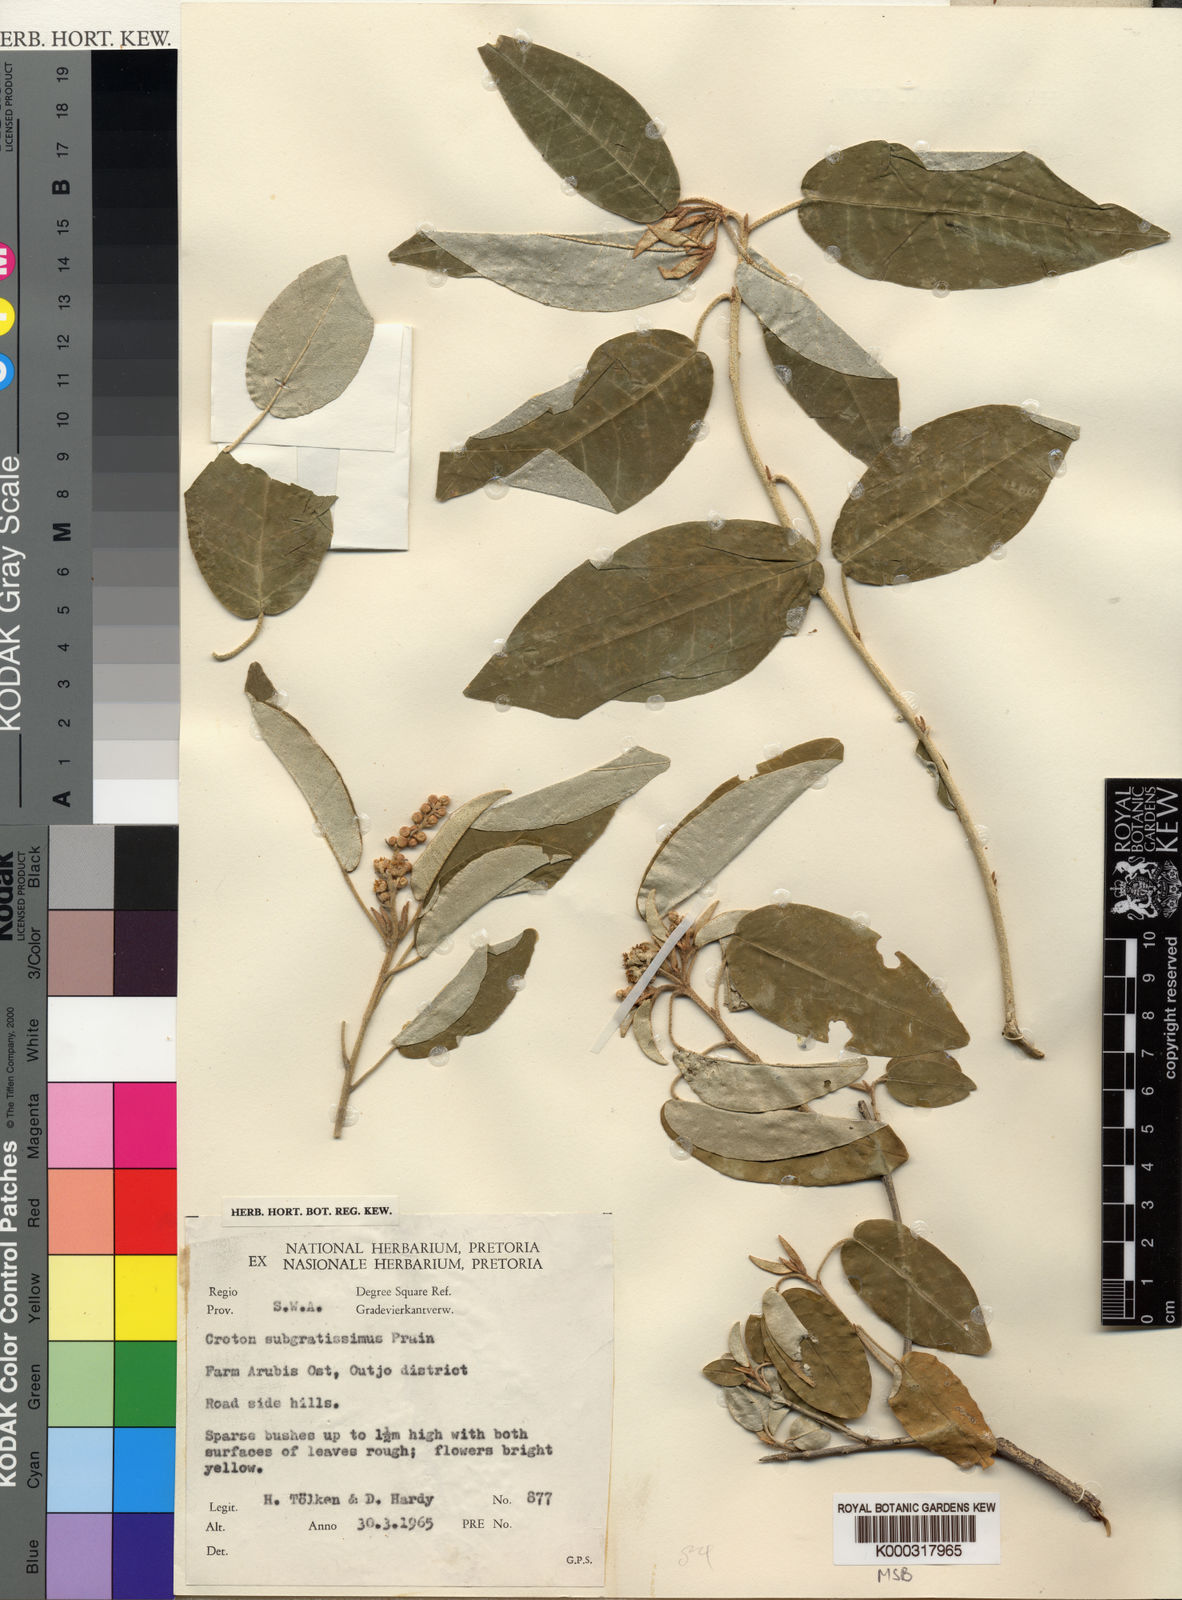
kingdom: Plantae
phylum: Tracheophyta
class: Magnoliopsida
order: Malpighiales
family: Euphorbiaceae
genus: Croton
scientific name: Croton gratissimus
